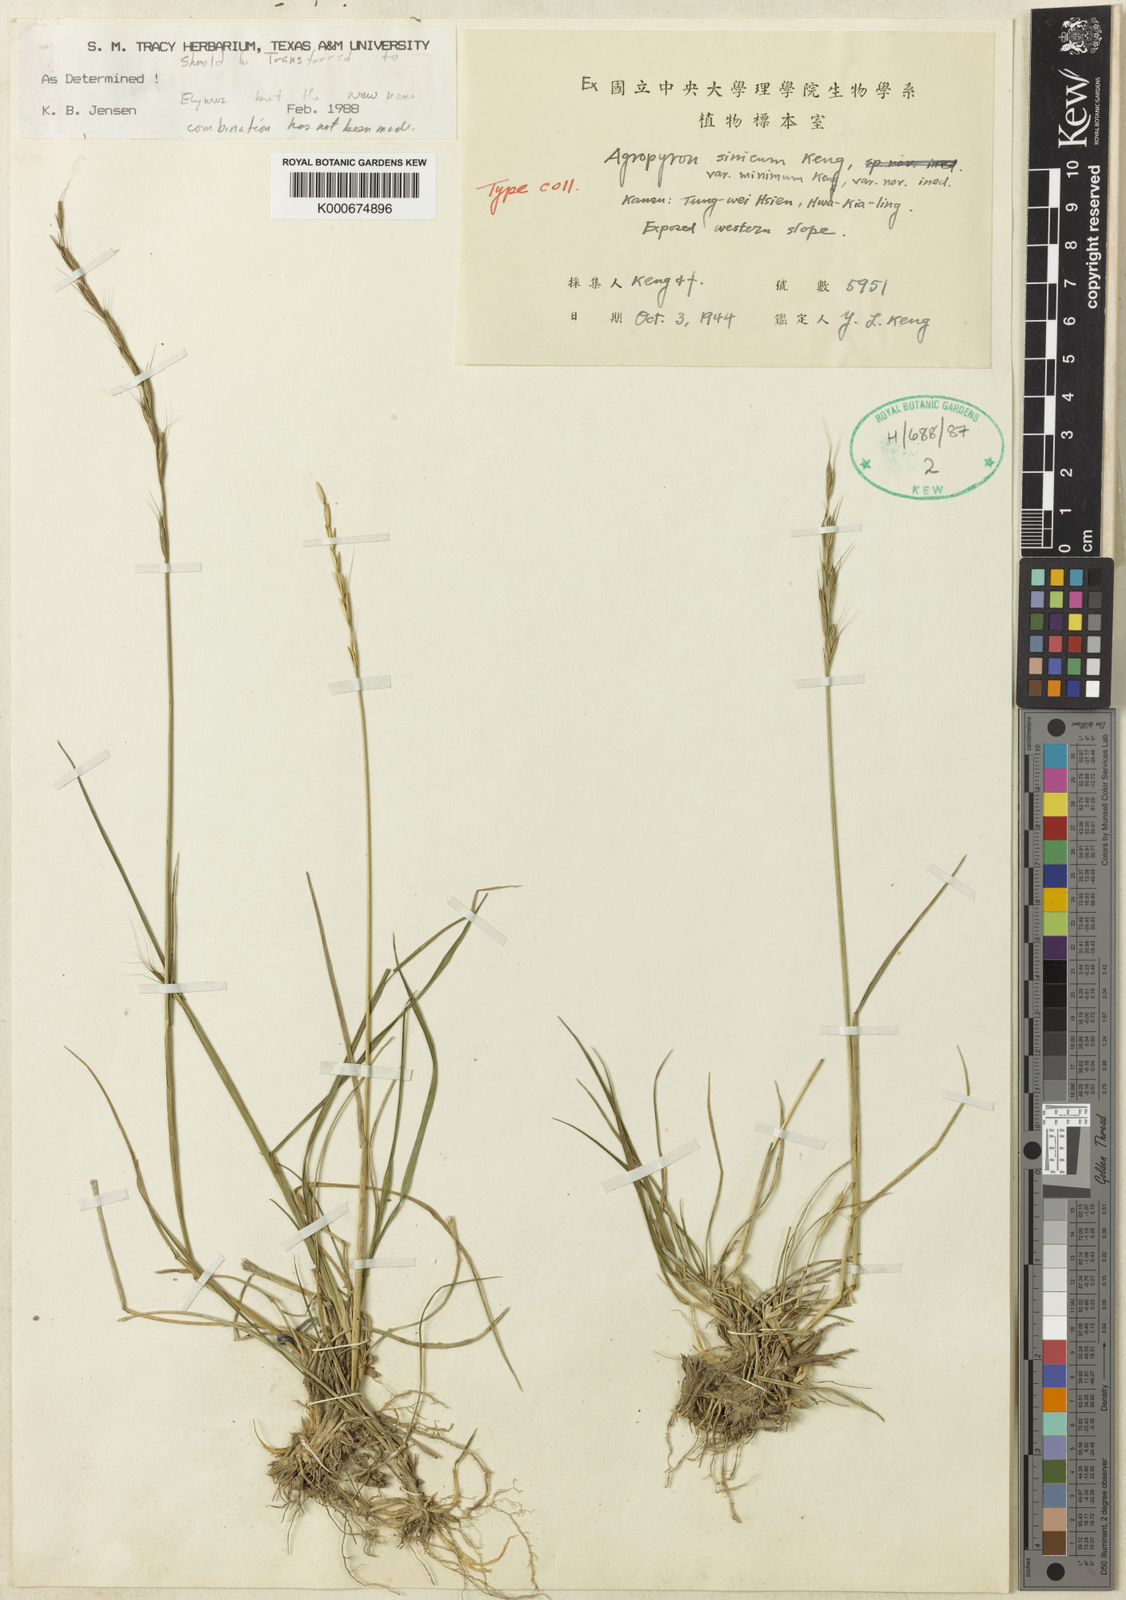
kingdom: Plantae
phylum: Tracheophyta
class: Liliopsida
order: Poales
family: Poaceae
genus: Elymus
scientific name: Elymus scabridulus
